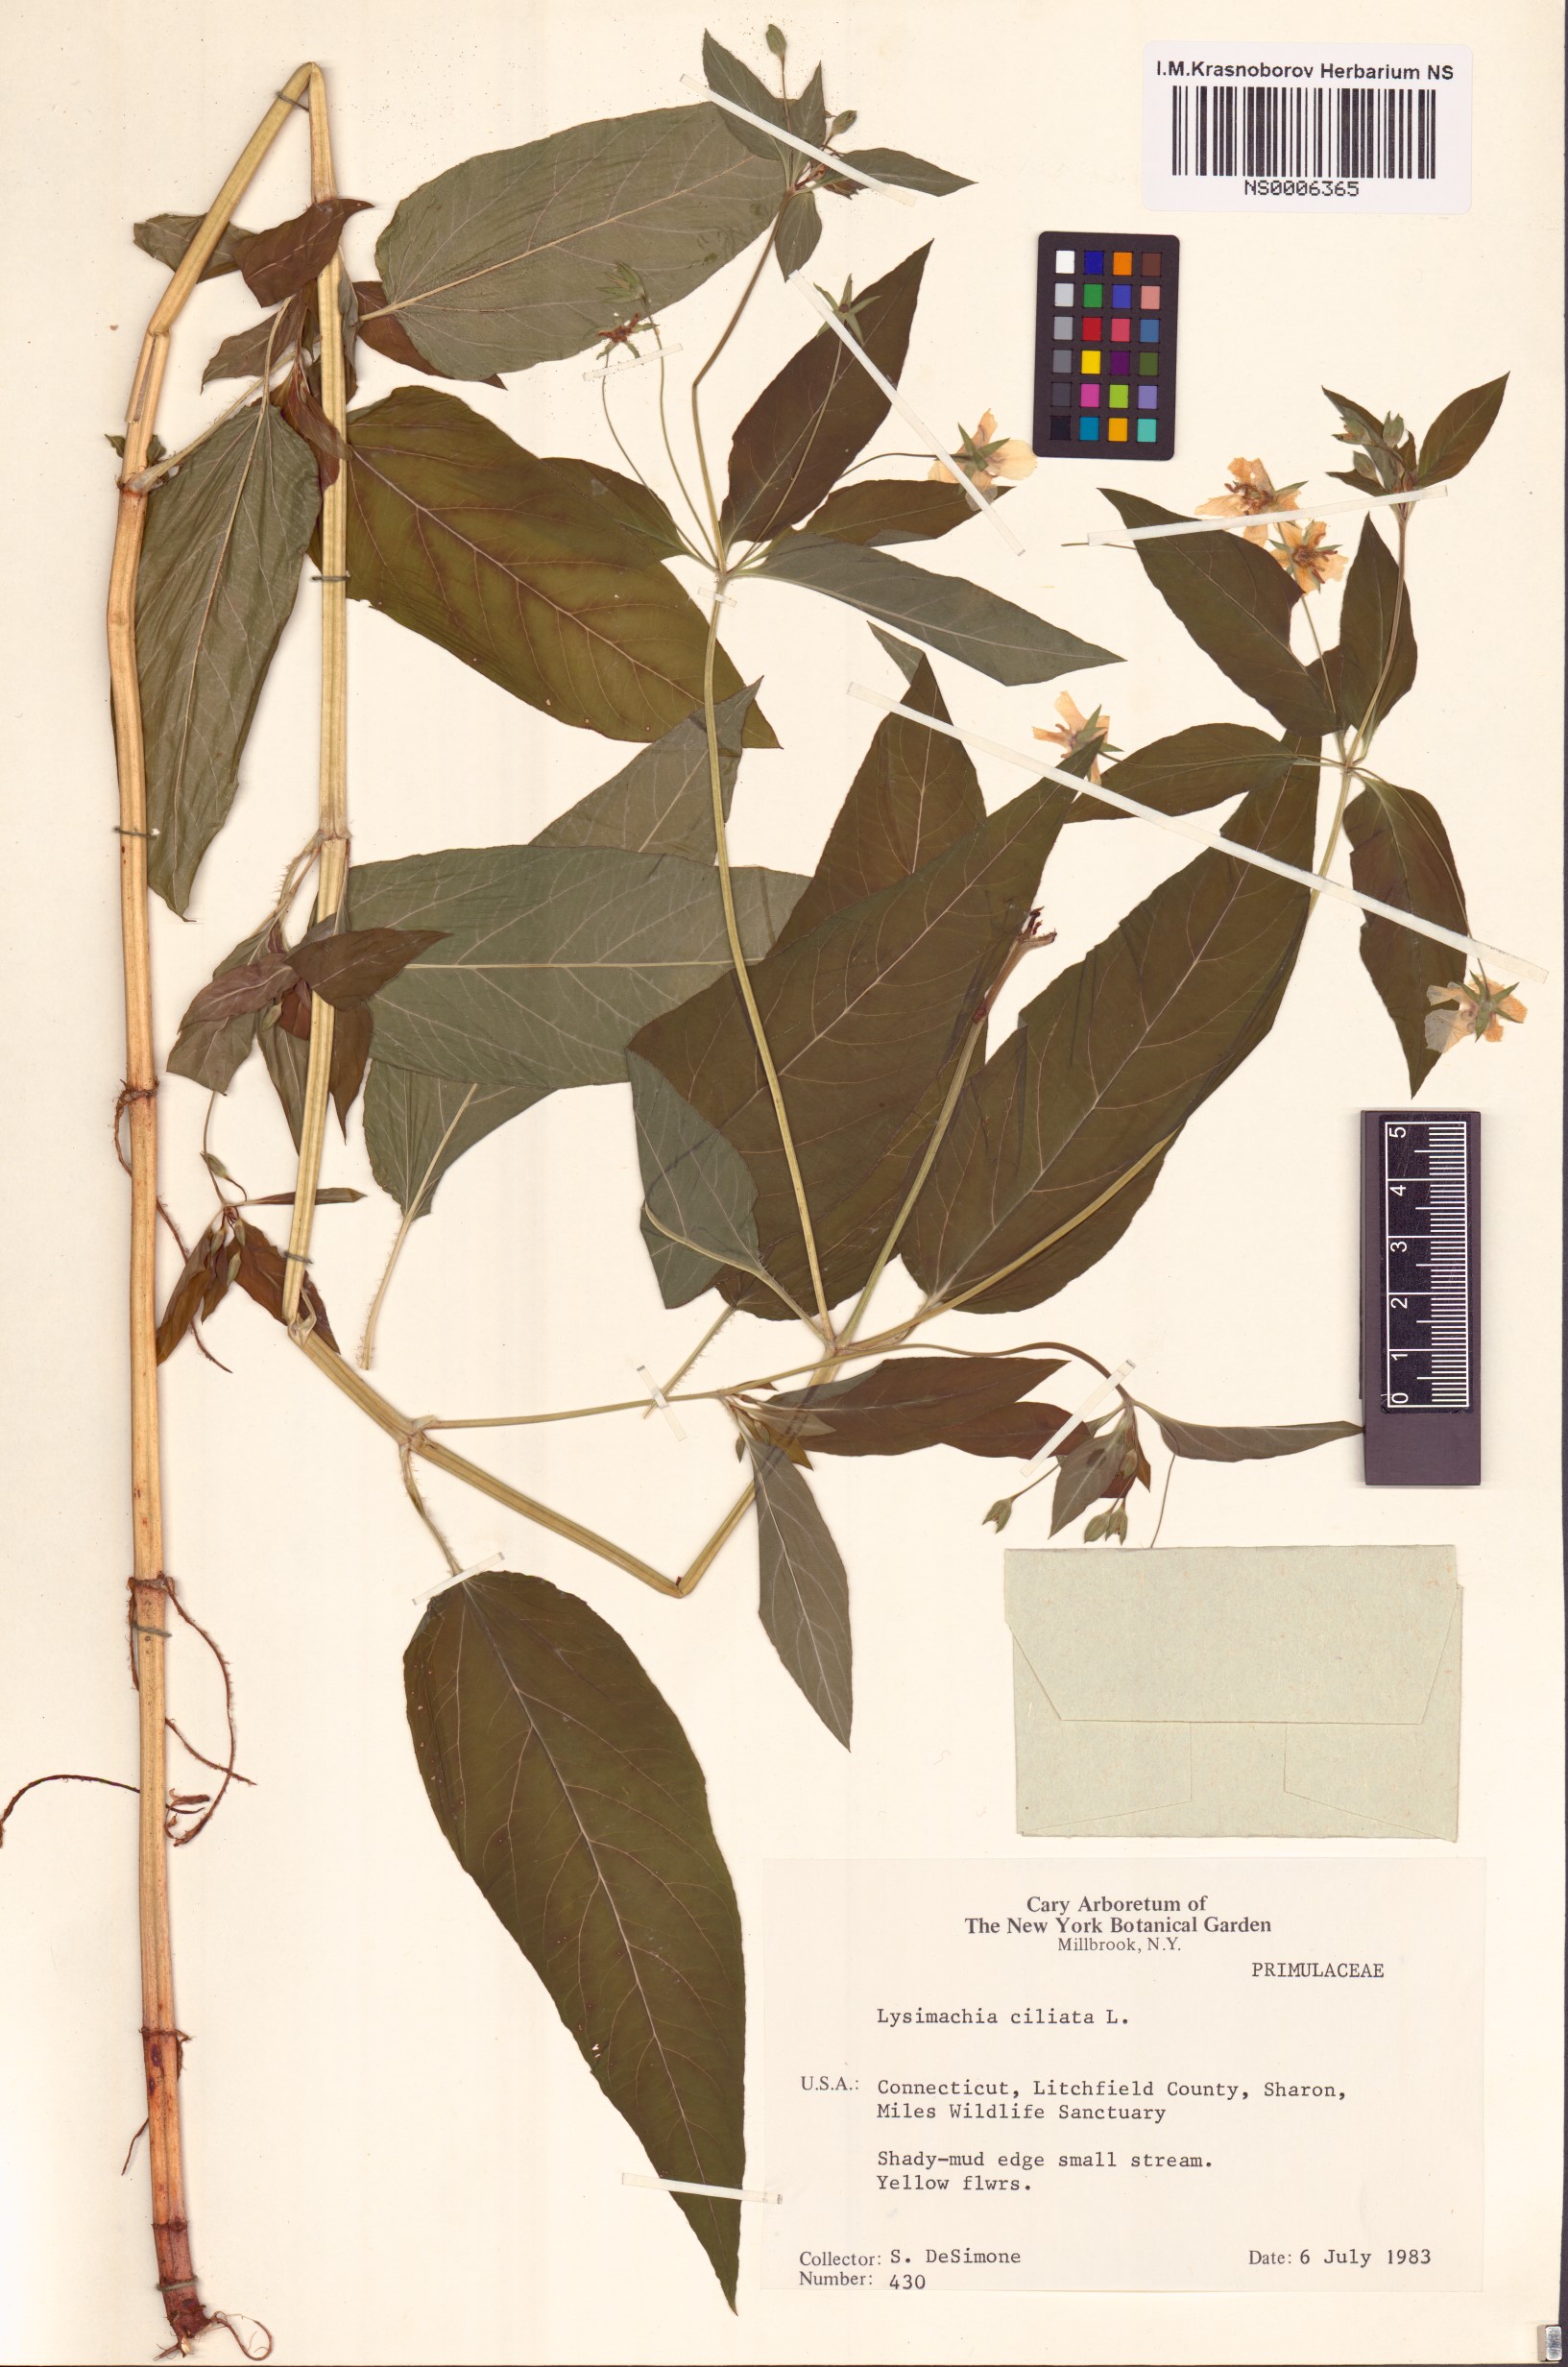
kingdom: Plantae
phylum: Tracheophyta
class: Magnoliopsida
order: Ericales
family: Primulaceae
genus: Lysimachia
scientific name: Lysimachia ciliata
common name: Fringed loosestrife
